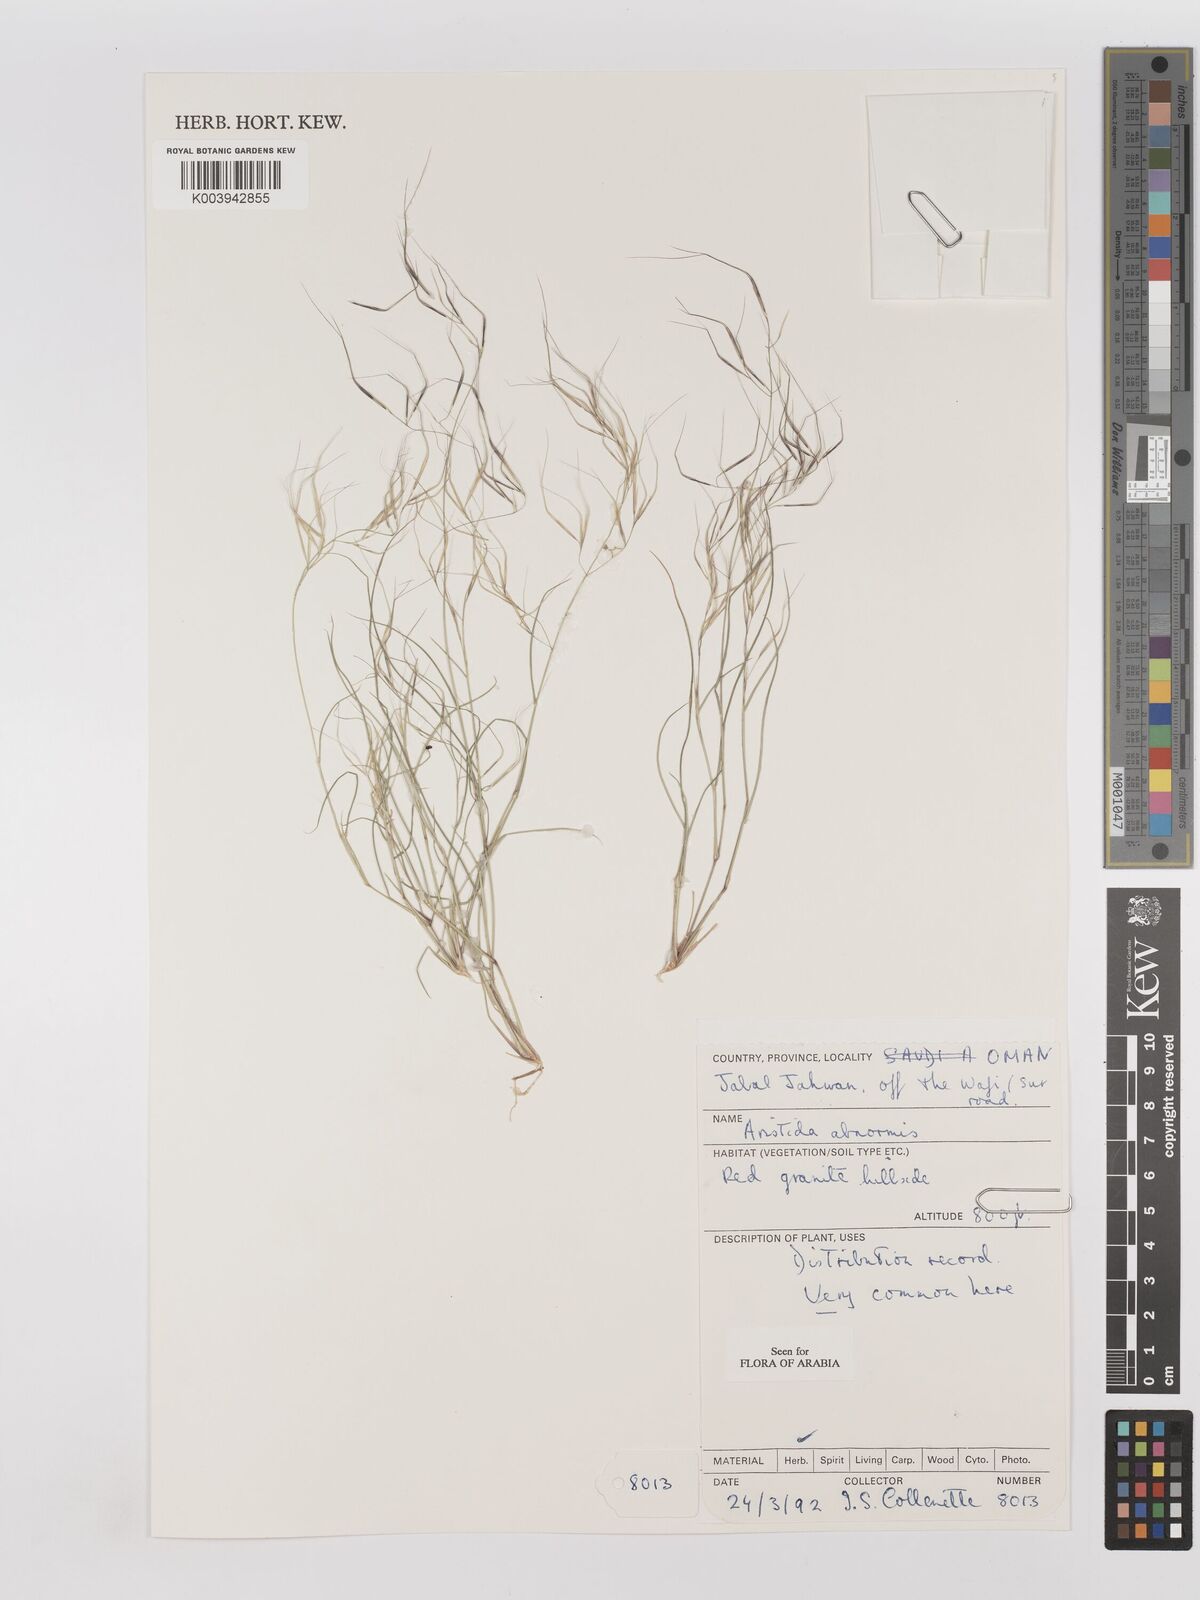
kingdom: Plantae
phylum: Tracheophyta
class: Liliopsida
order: Poales
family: Poaceae
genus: Aristida
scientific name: Aristida abnormis
